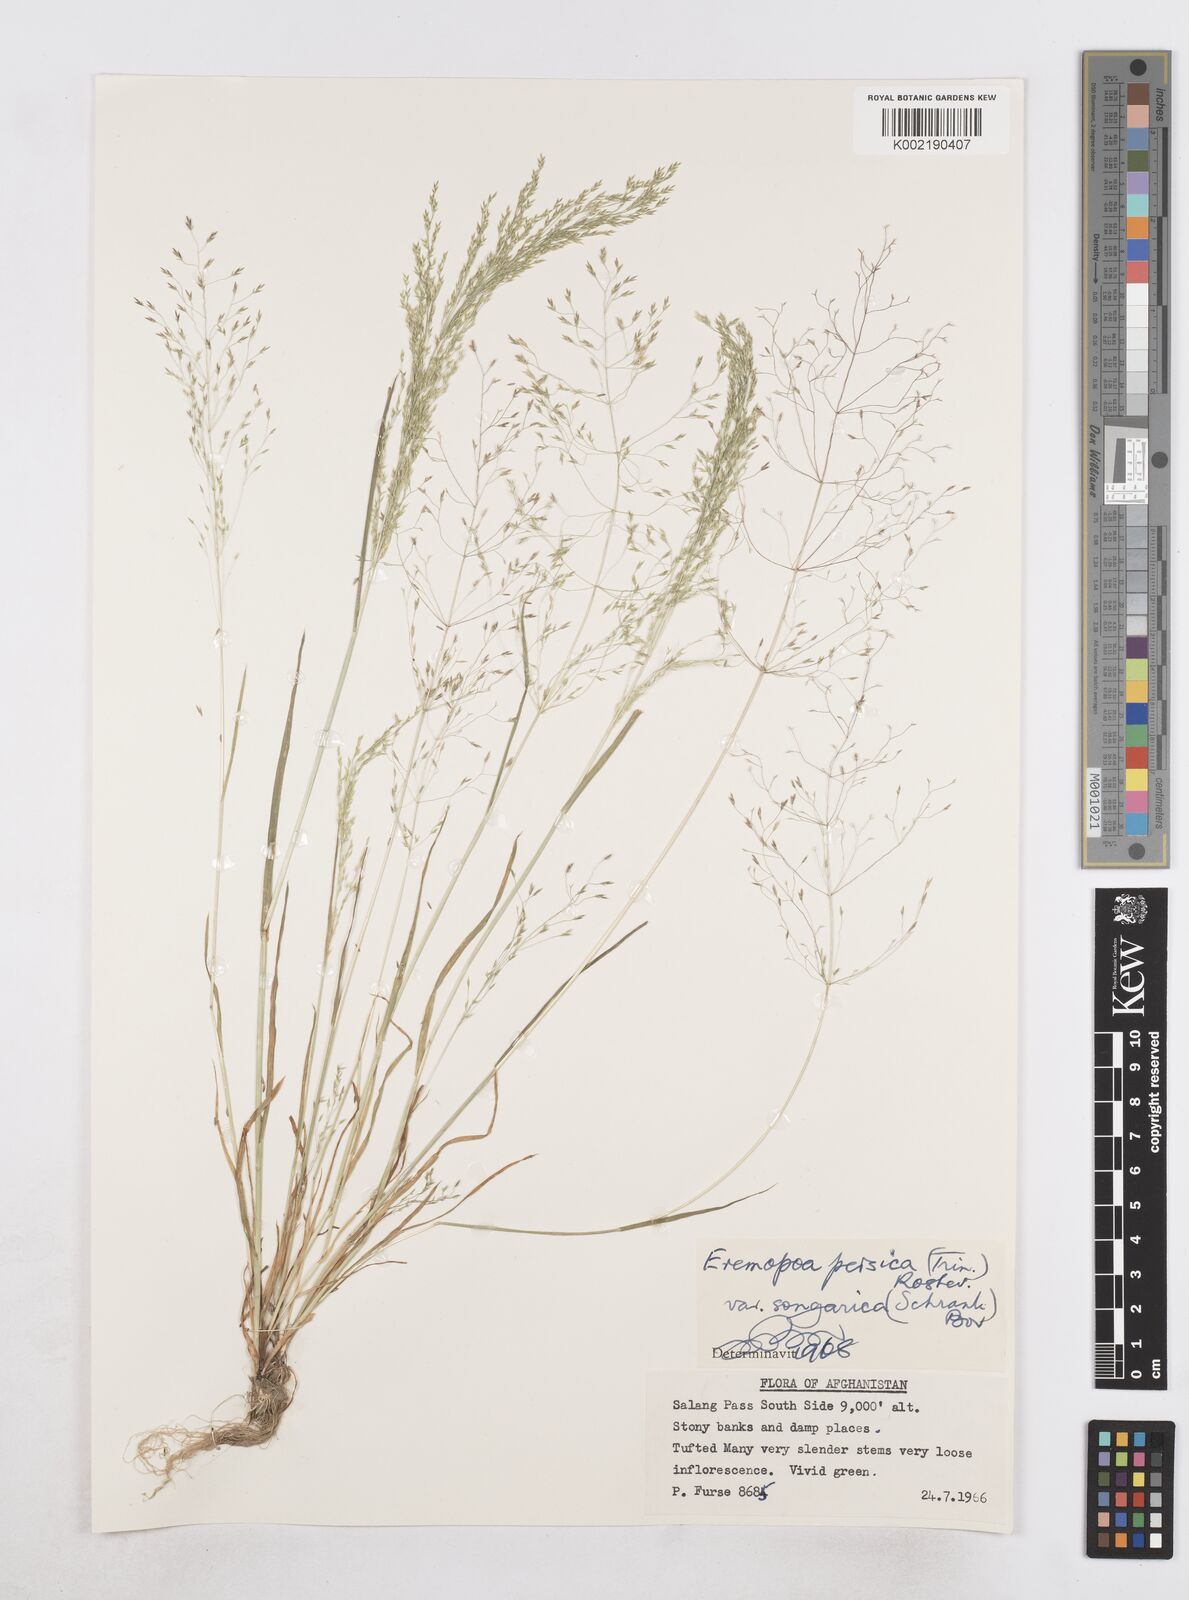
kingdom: Plantae
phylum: Tracheophyta
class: Liliopsida
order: Poales
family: Poaceae
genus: Poa
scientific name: Poa diaphora
